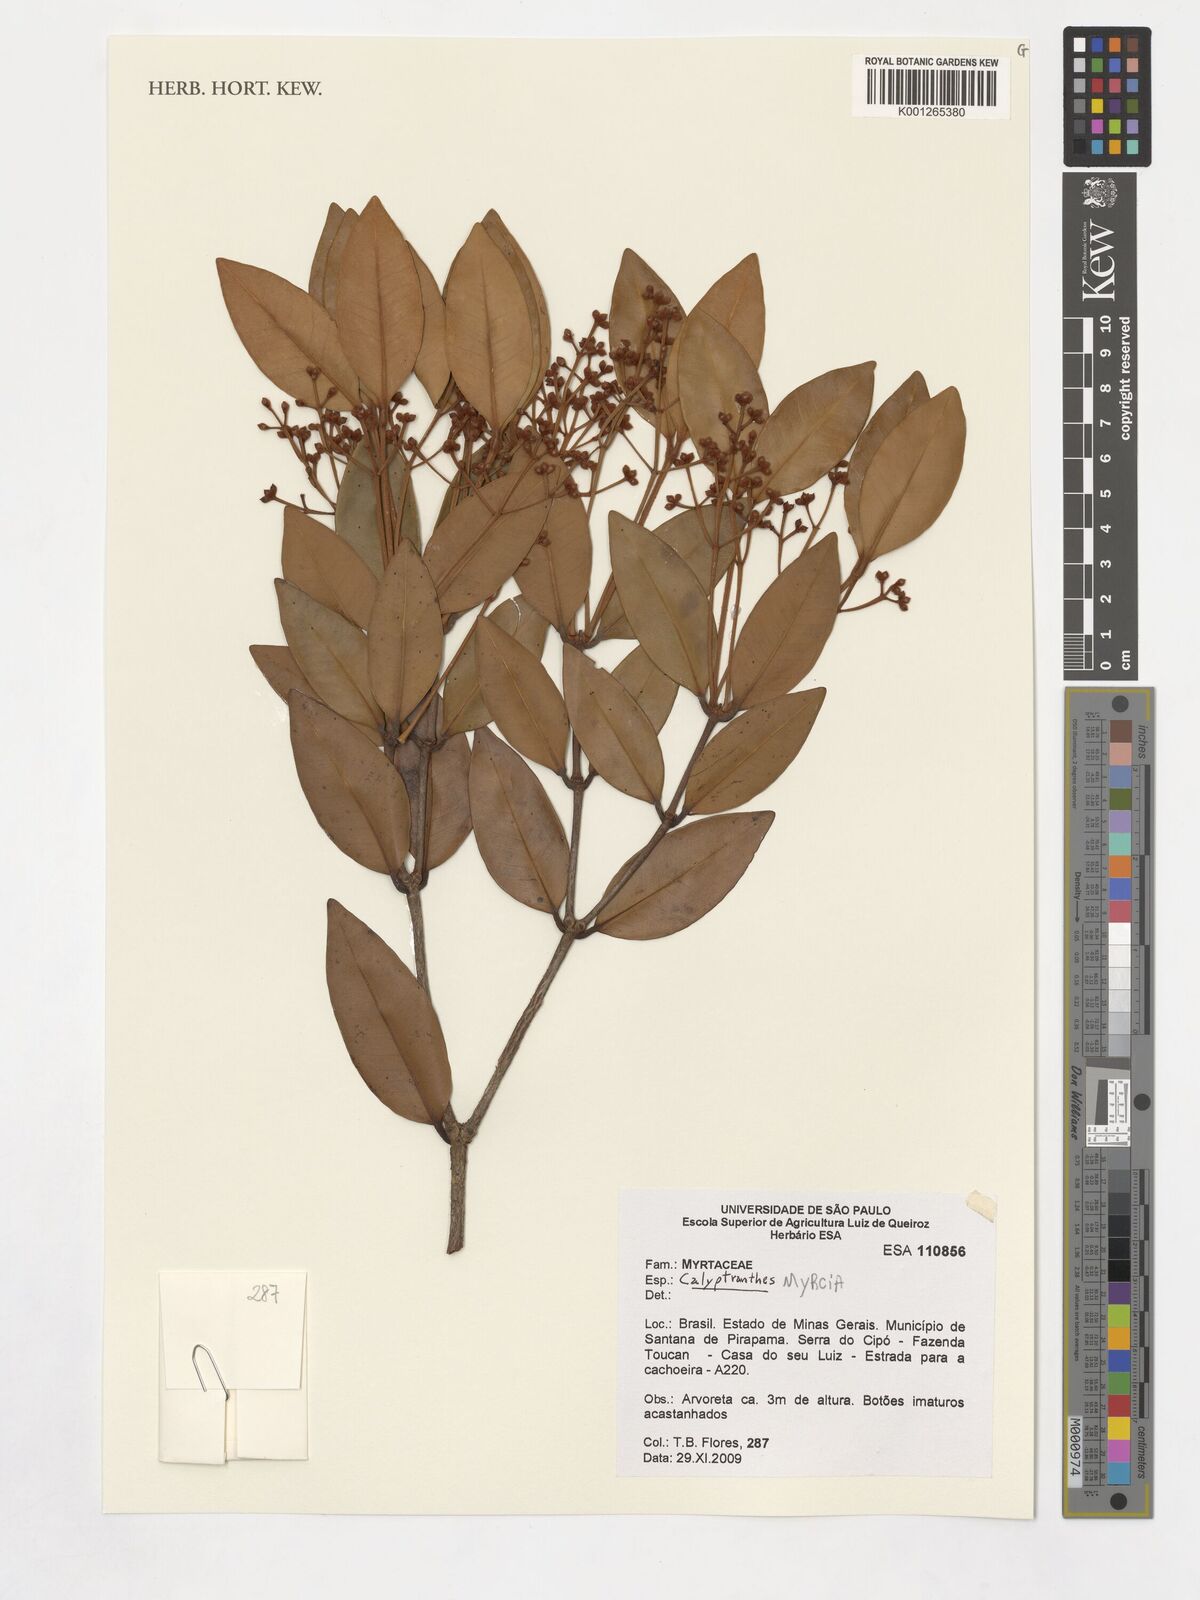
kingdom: Plantae
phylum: Tracheophyta
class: Magnoliopsida
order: Myrtales
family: Myrtaceae
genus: Myrcia
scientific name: Myrcia neobrasiliensis
